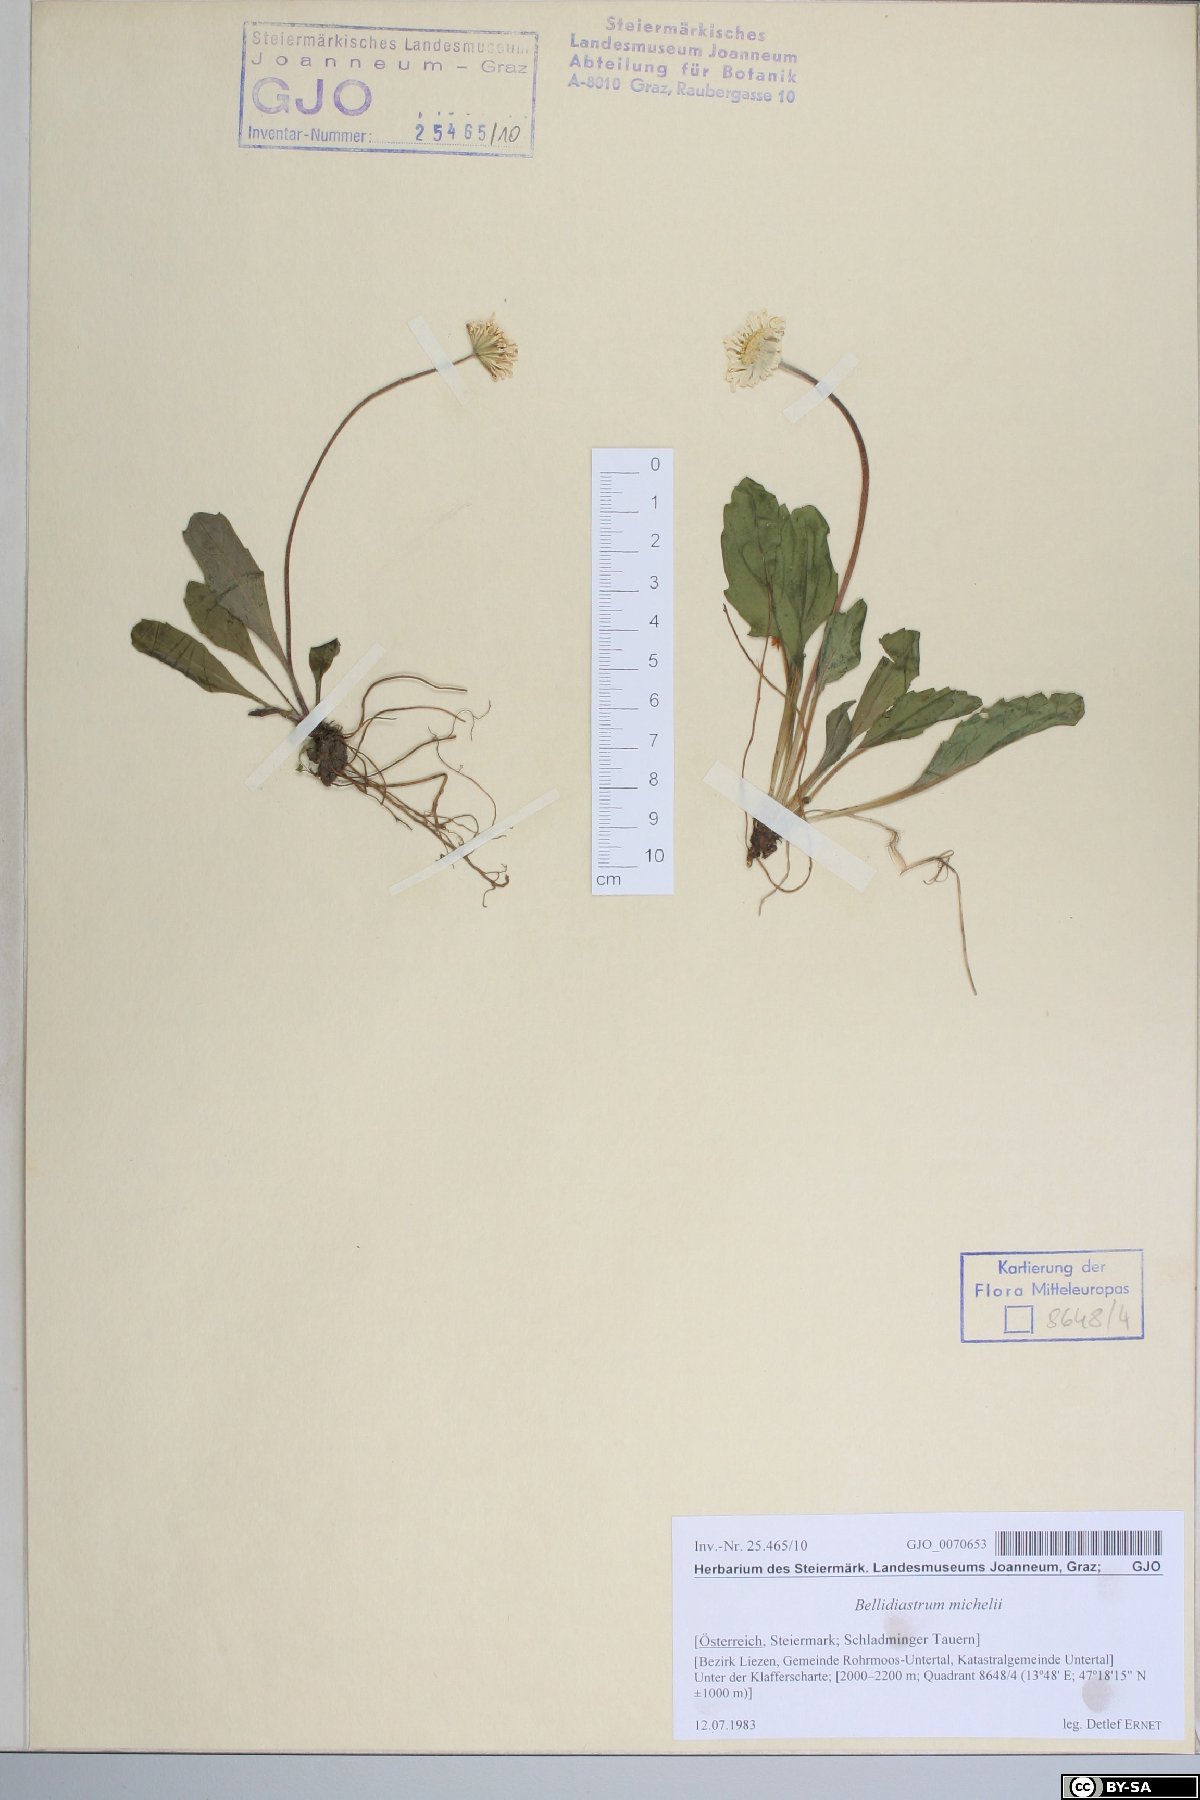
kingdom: Plantae
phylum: Tracheophyta
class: Magnoliopsida
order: Asterales
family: Asteraceae
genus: Bellidiastrum
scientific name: Bellidiastrum michelii
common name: Daisy-star aster
